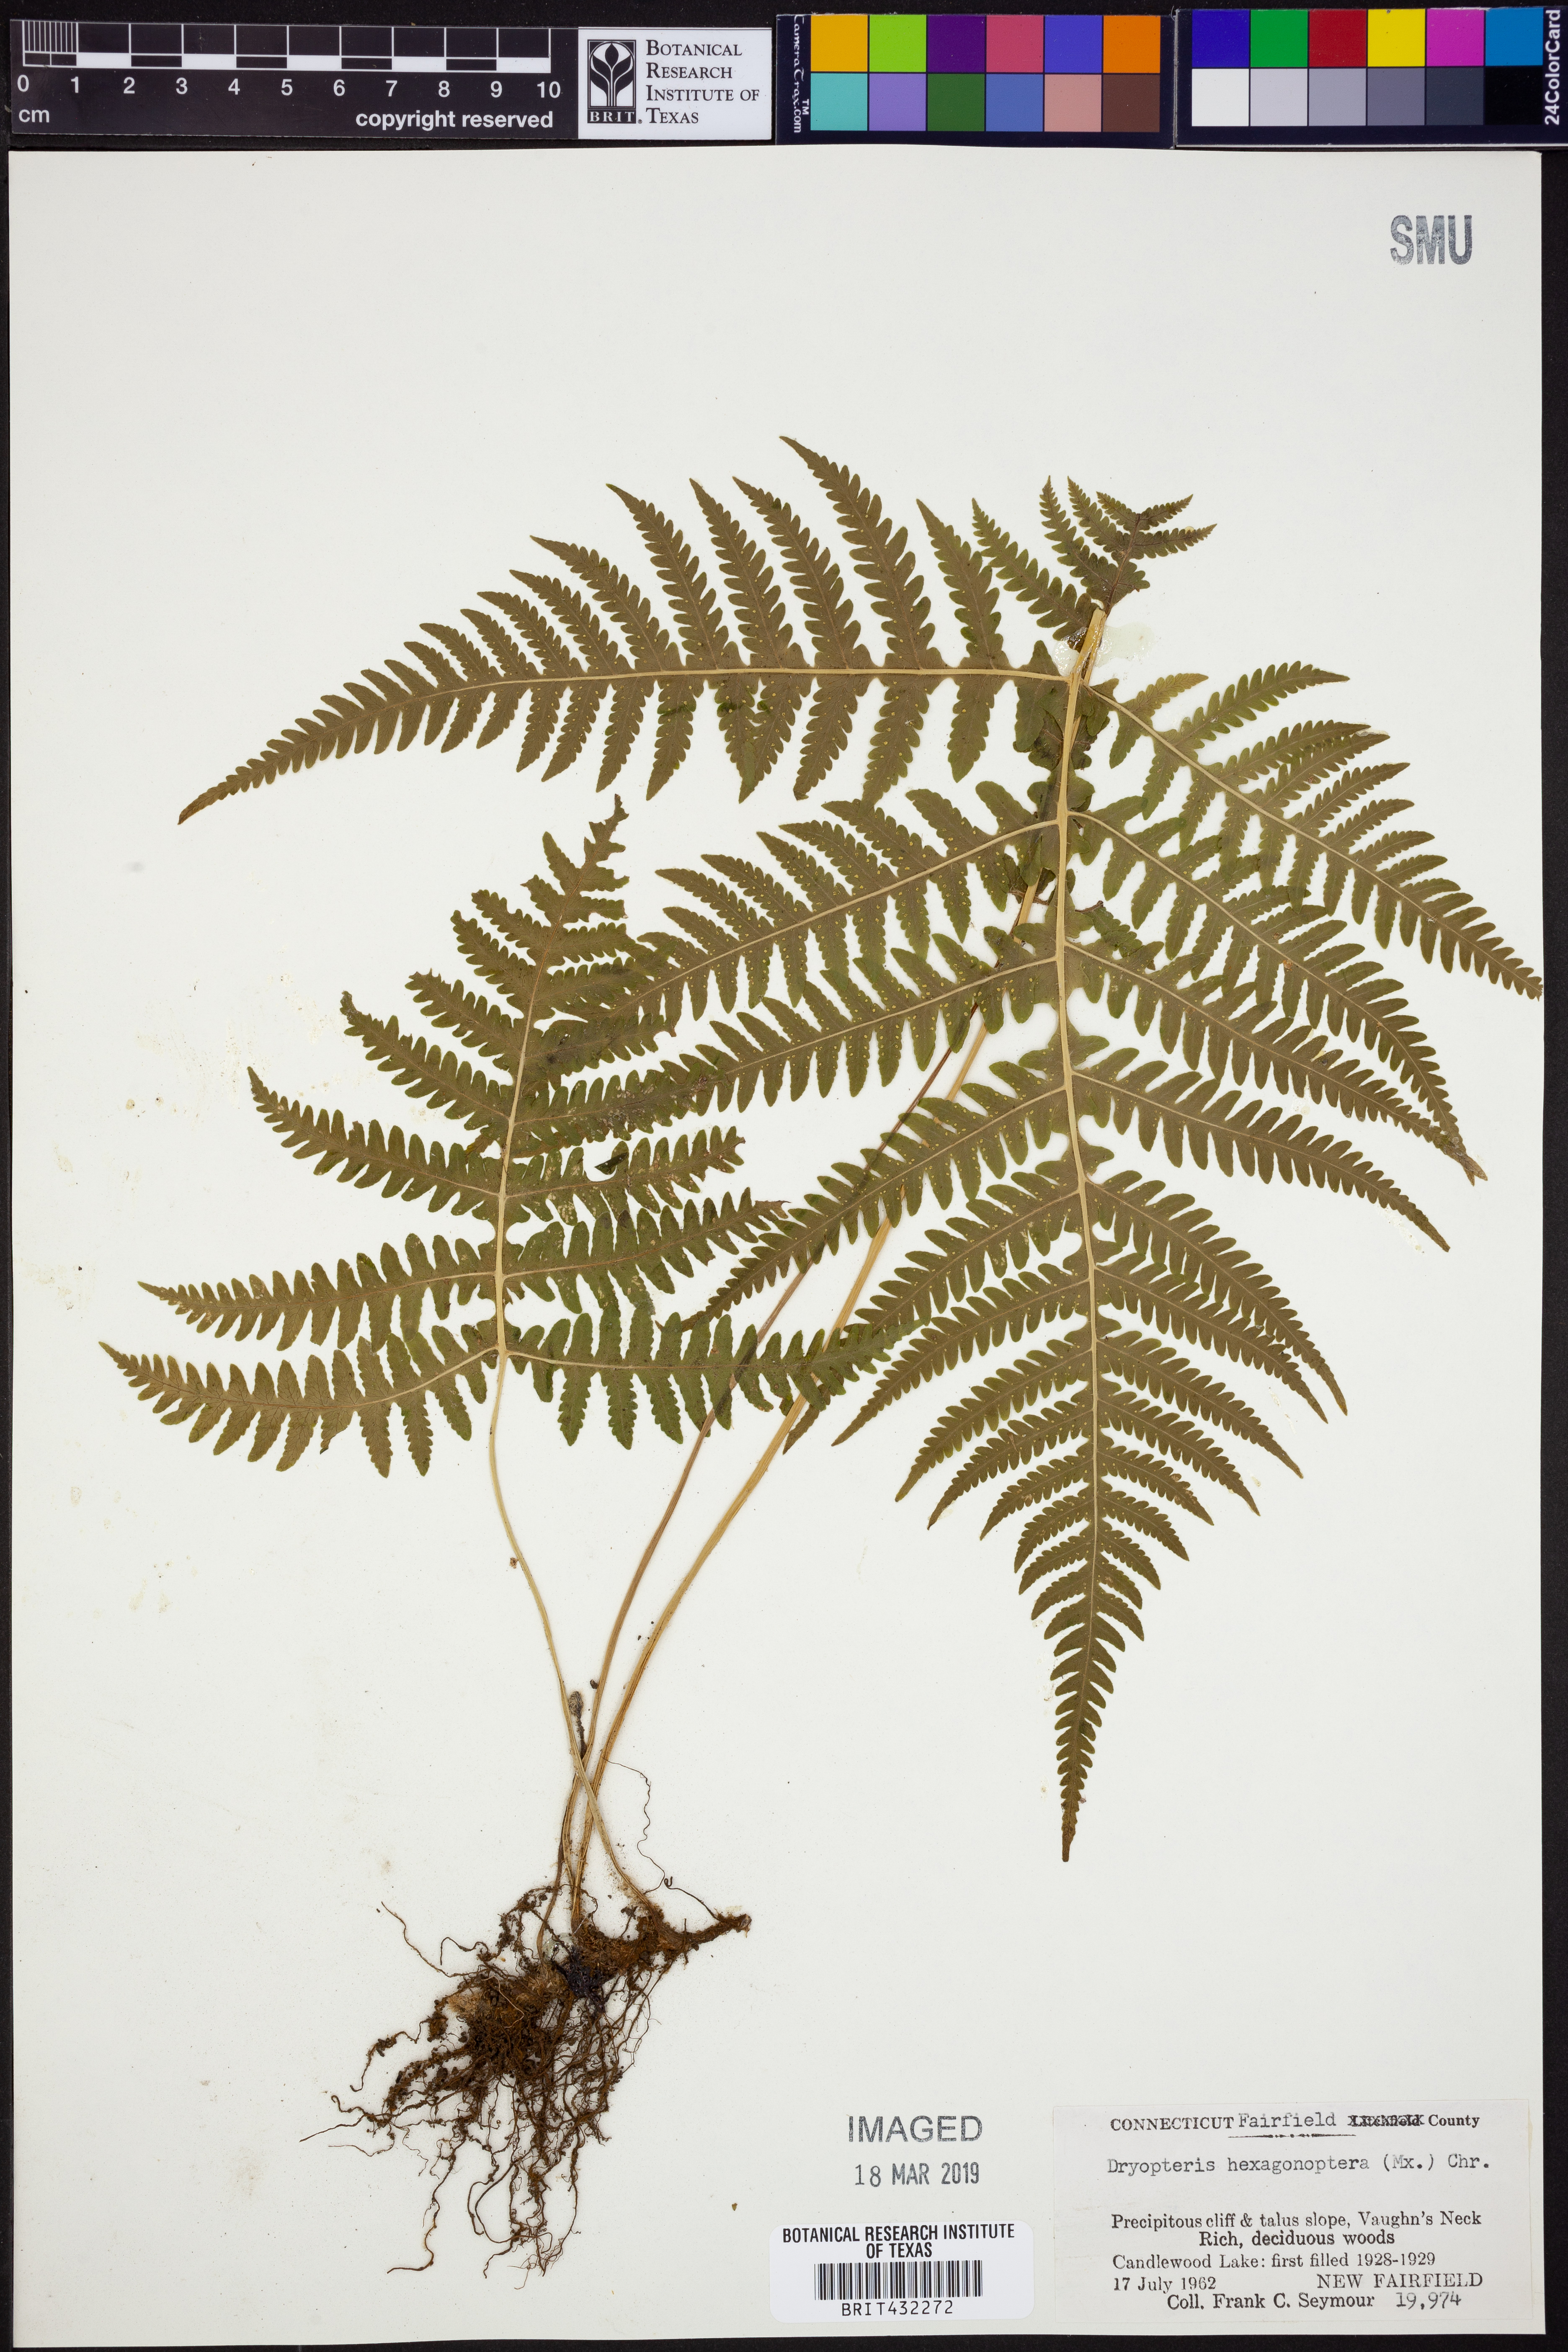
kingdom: Plantae
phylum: Tracheophyta
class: Polypodiopsida
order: Polypodiales
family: Dryopteridaceae
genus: Dryopteris
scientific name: Dryopteris hexagonaptera
